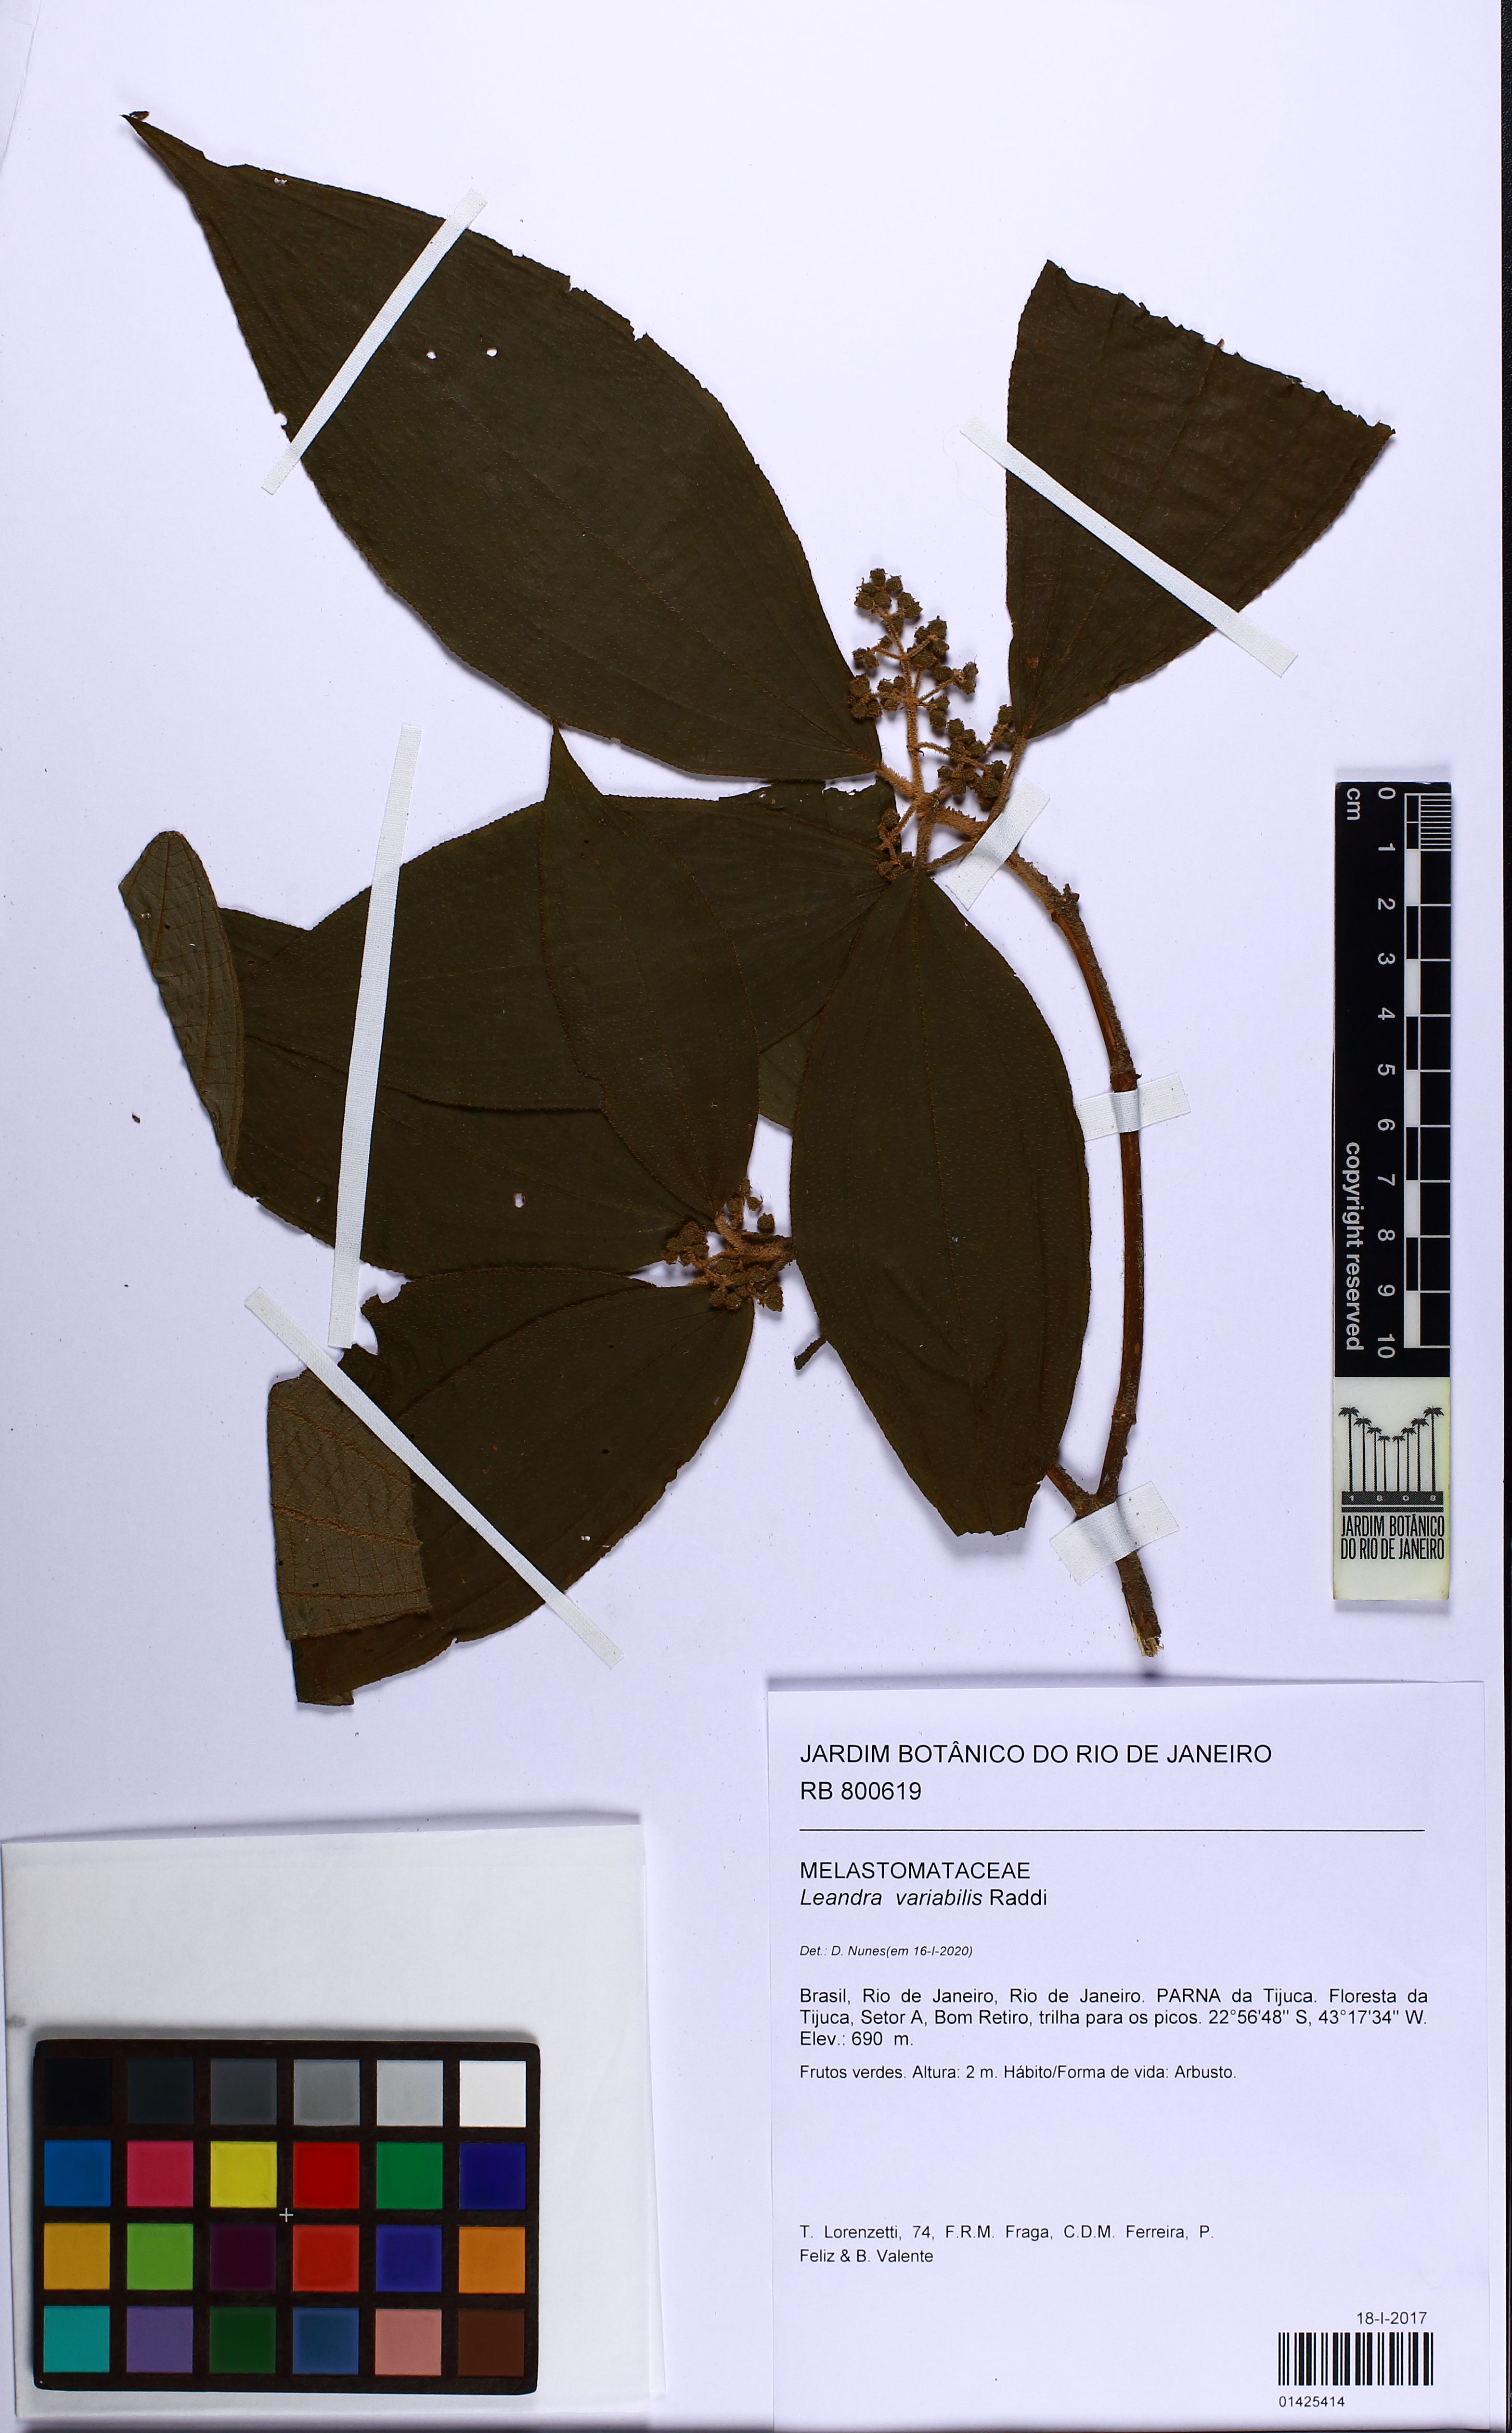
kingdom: Plantae
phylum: Tracheophyta
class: Magnoliopsida
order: Myrtales
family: Melastomataceae
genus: Miconia
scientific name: Miconia dasytricha
